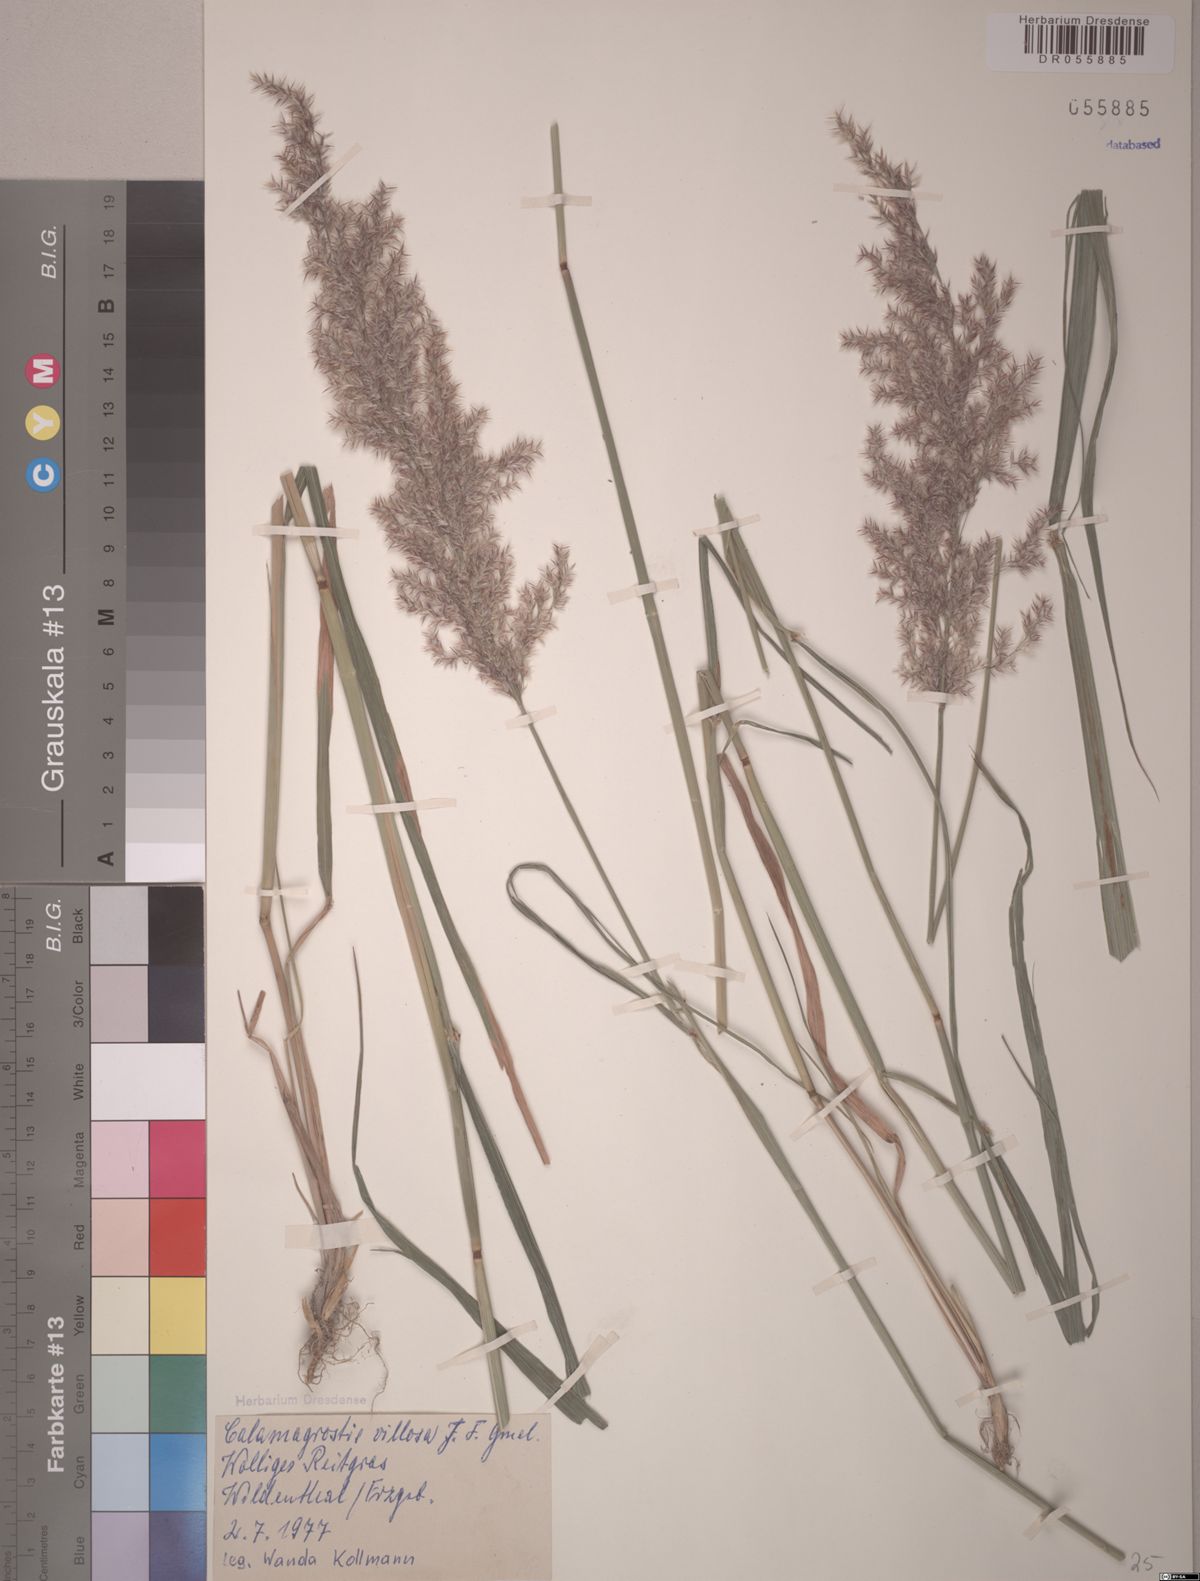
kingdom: Plantae
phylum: Tracheophyta
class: Liliopsida
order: Poales
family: Poaceae
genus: Calamagrostis
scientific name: Calamagrostis villosa
